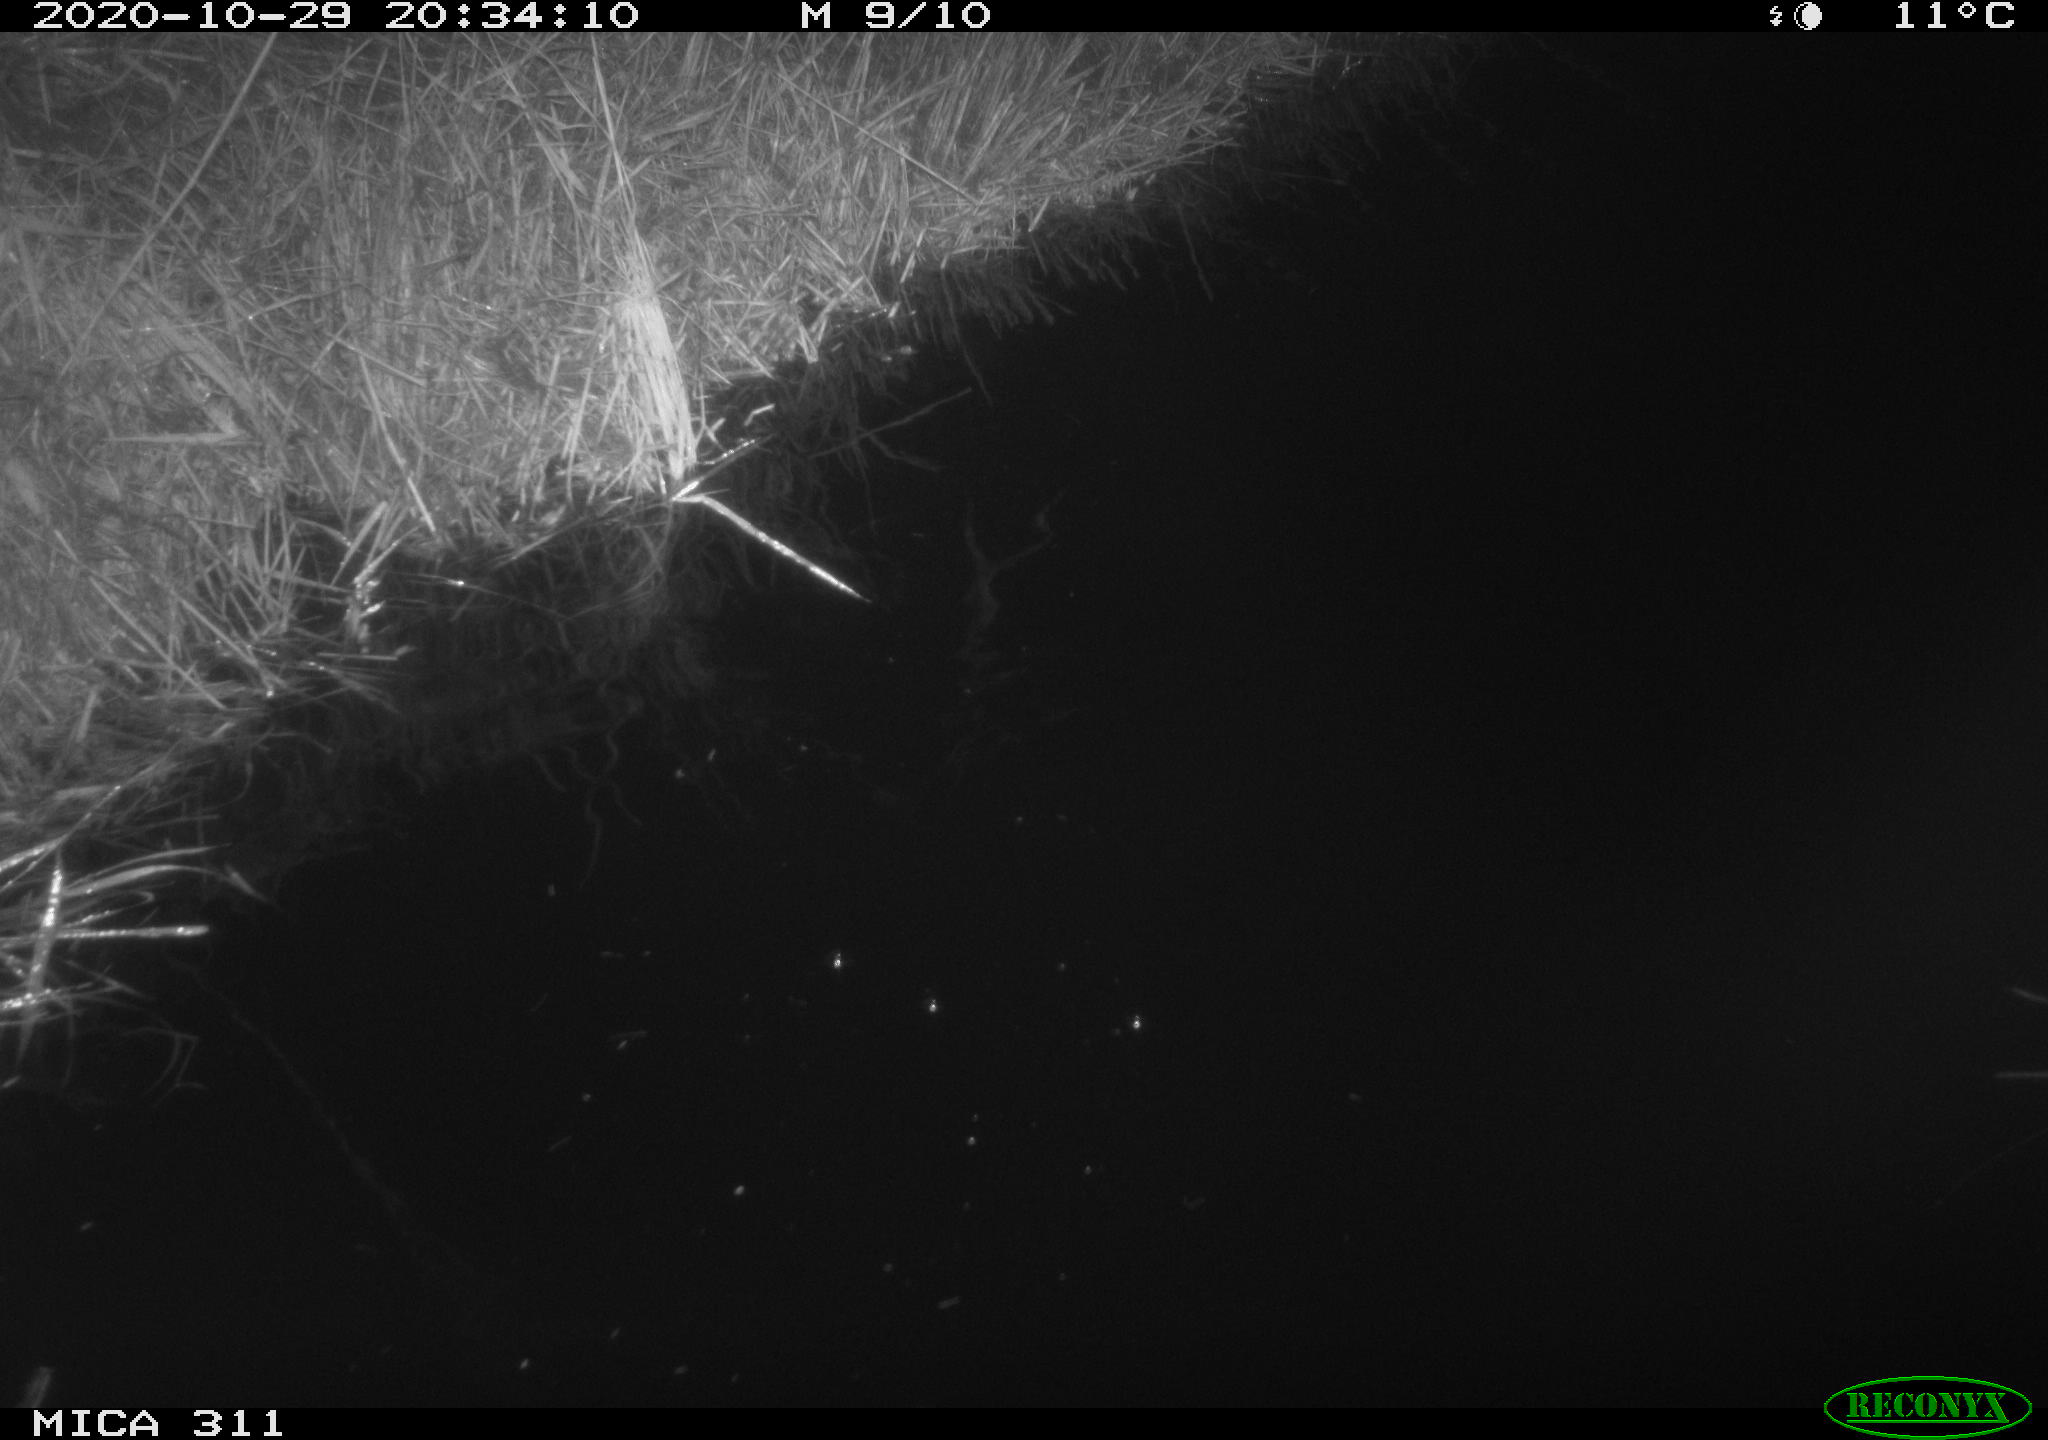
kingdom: Animalia
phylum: Chordata
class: Mammalia
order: Rodentia
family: Muridae
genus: Rattus
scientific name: Rattus norvegicus
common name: Brown rat
